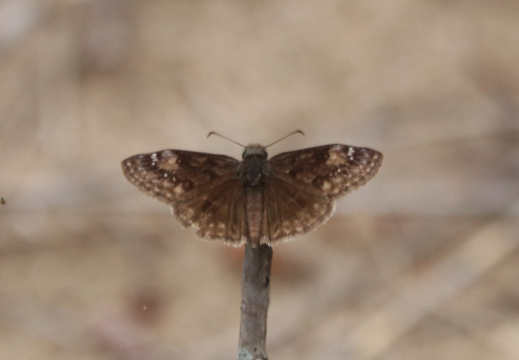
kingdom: Animalia
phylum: Arthropoda
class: Insecta
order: Lepidoptera
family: Hesperiidae
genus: Gesta
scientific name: Gesta
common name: Wild Indigo Duskywing
